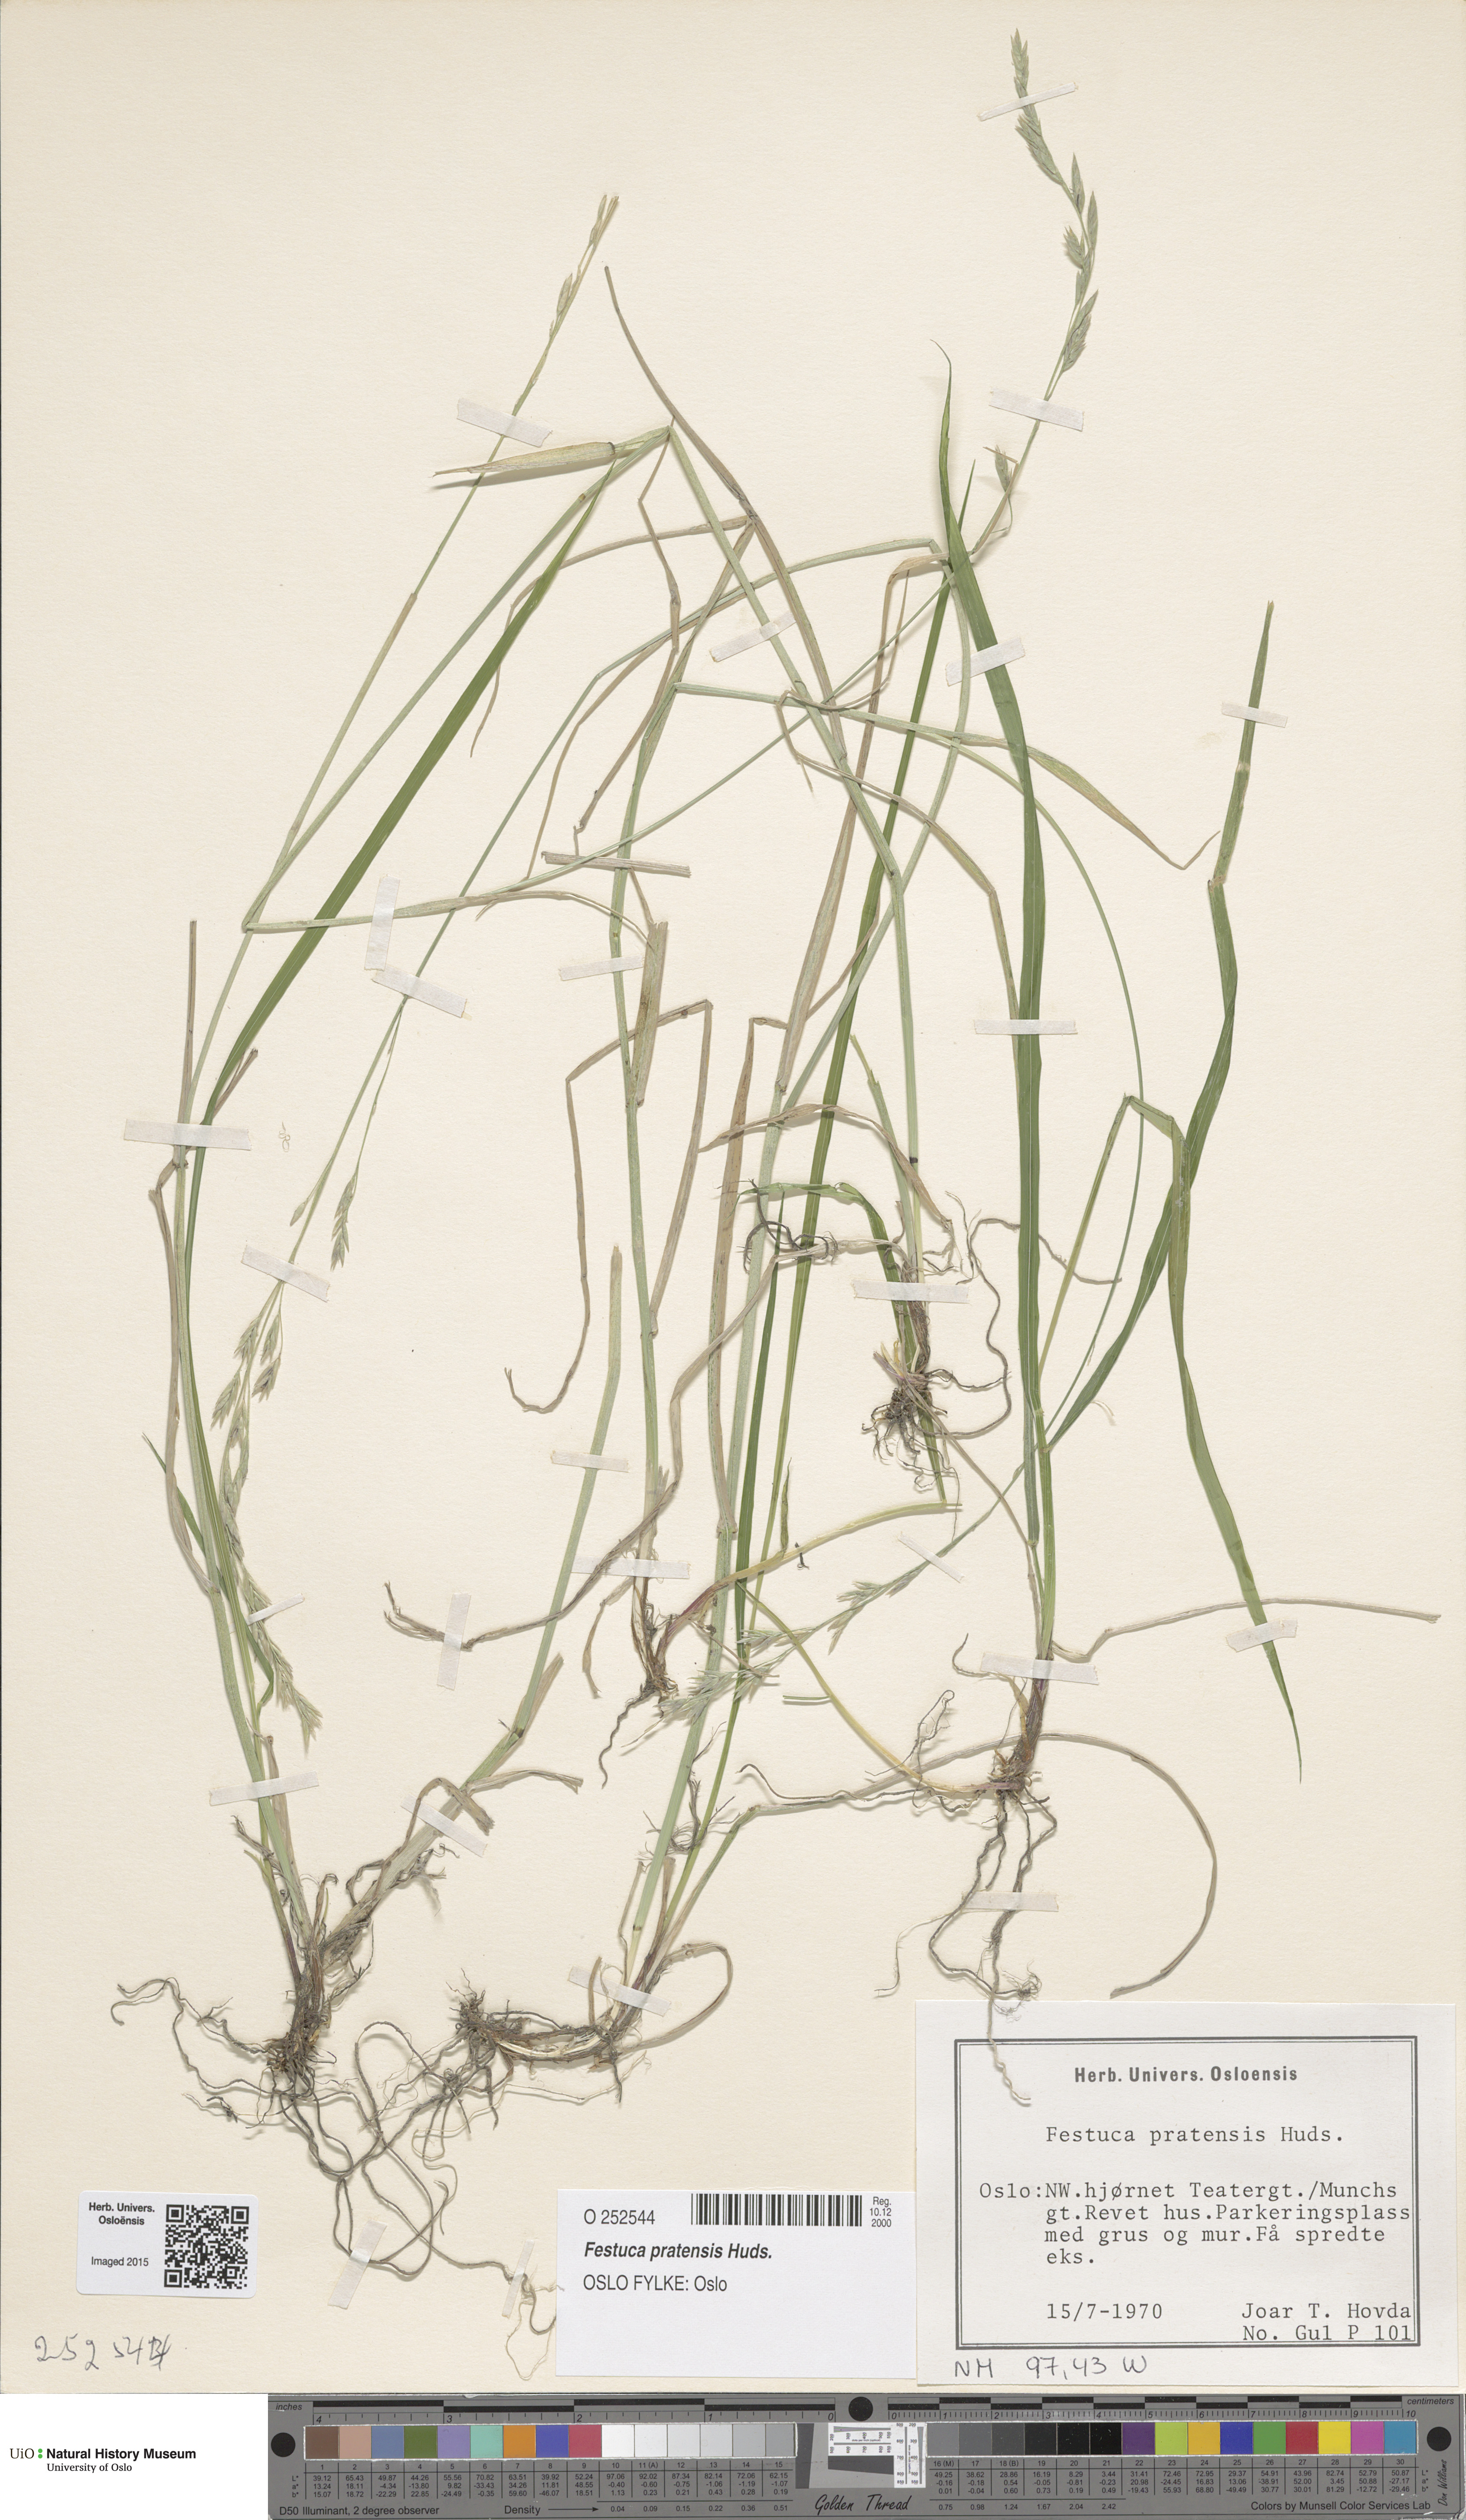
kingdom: Plantae
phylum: Tracheophyta
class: Liliopsida
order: Poales
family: Poaceae
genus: Lolium
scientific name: Lolium pratense
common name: Dover grass
